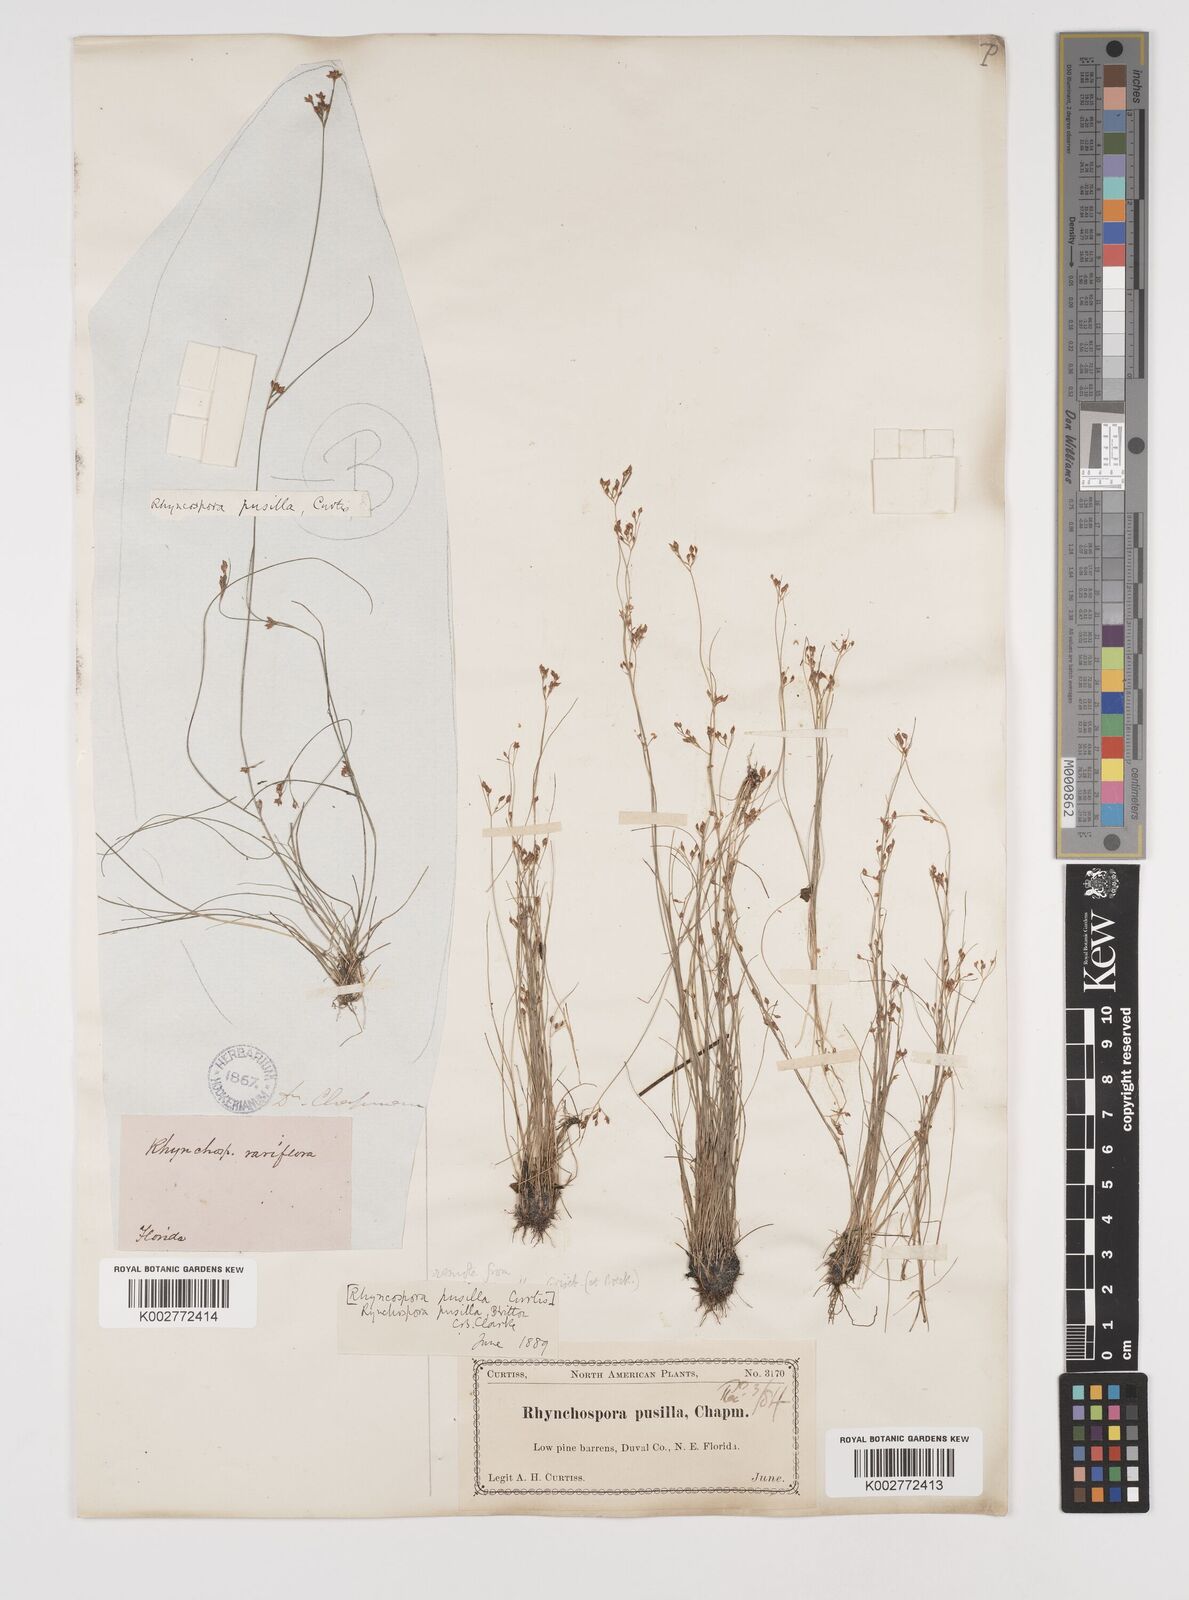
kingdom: Plantae
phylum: Tracheophyta
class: Liliopsida
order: Poales
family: Cyperaceae
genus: Rhynchospora
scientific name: Rhynchospora intermixta
